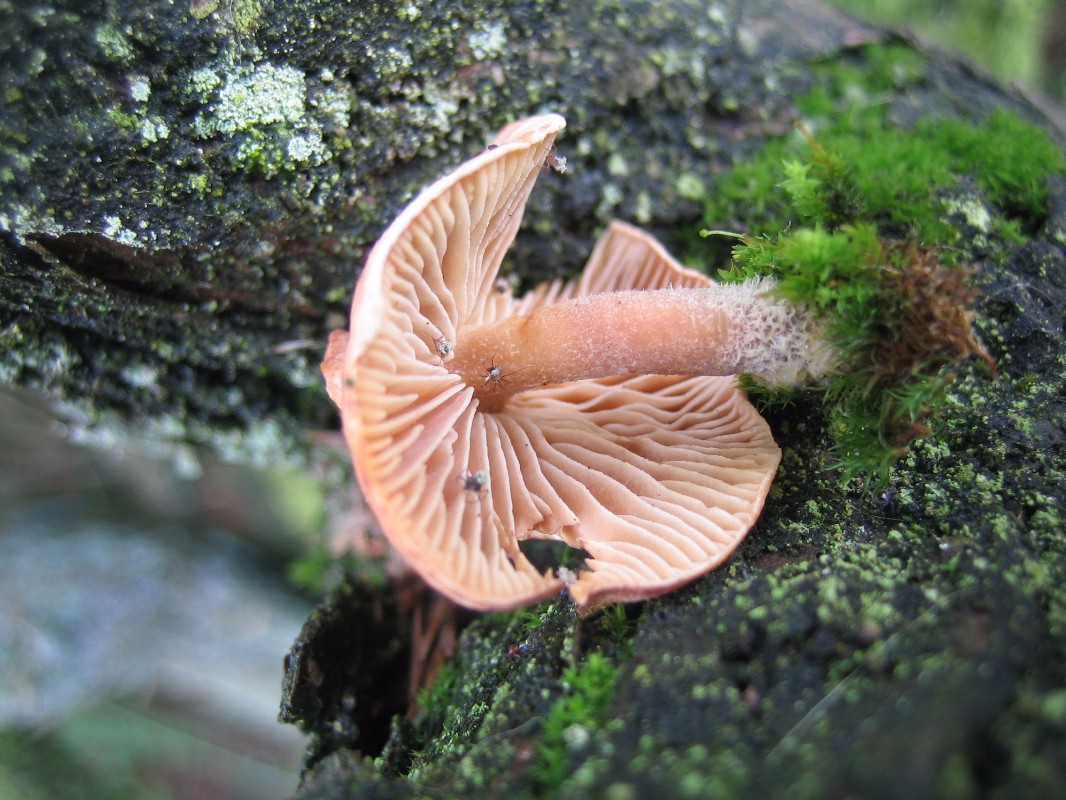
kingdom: Fungi
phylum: Basidiomycota
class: Agaricomycetes
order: Agaricales
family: Omphalotaceae
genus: Collybiopsis
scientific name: Collybiopsis peronata
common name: bestøvlet fladhat
